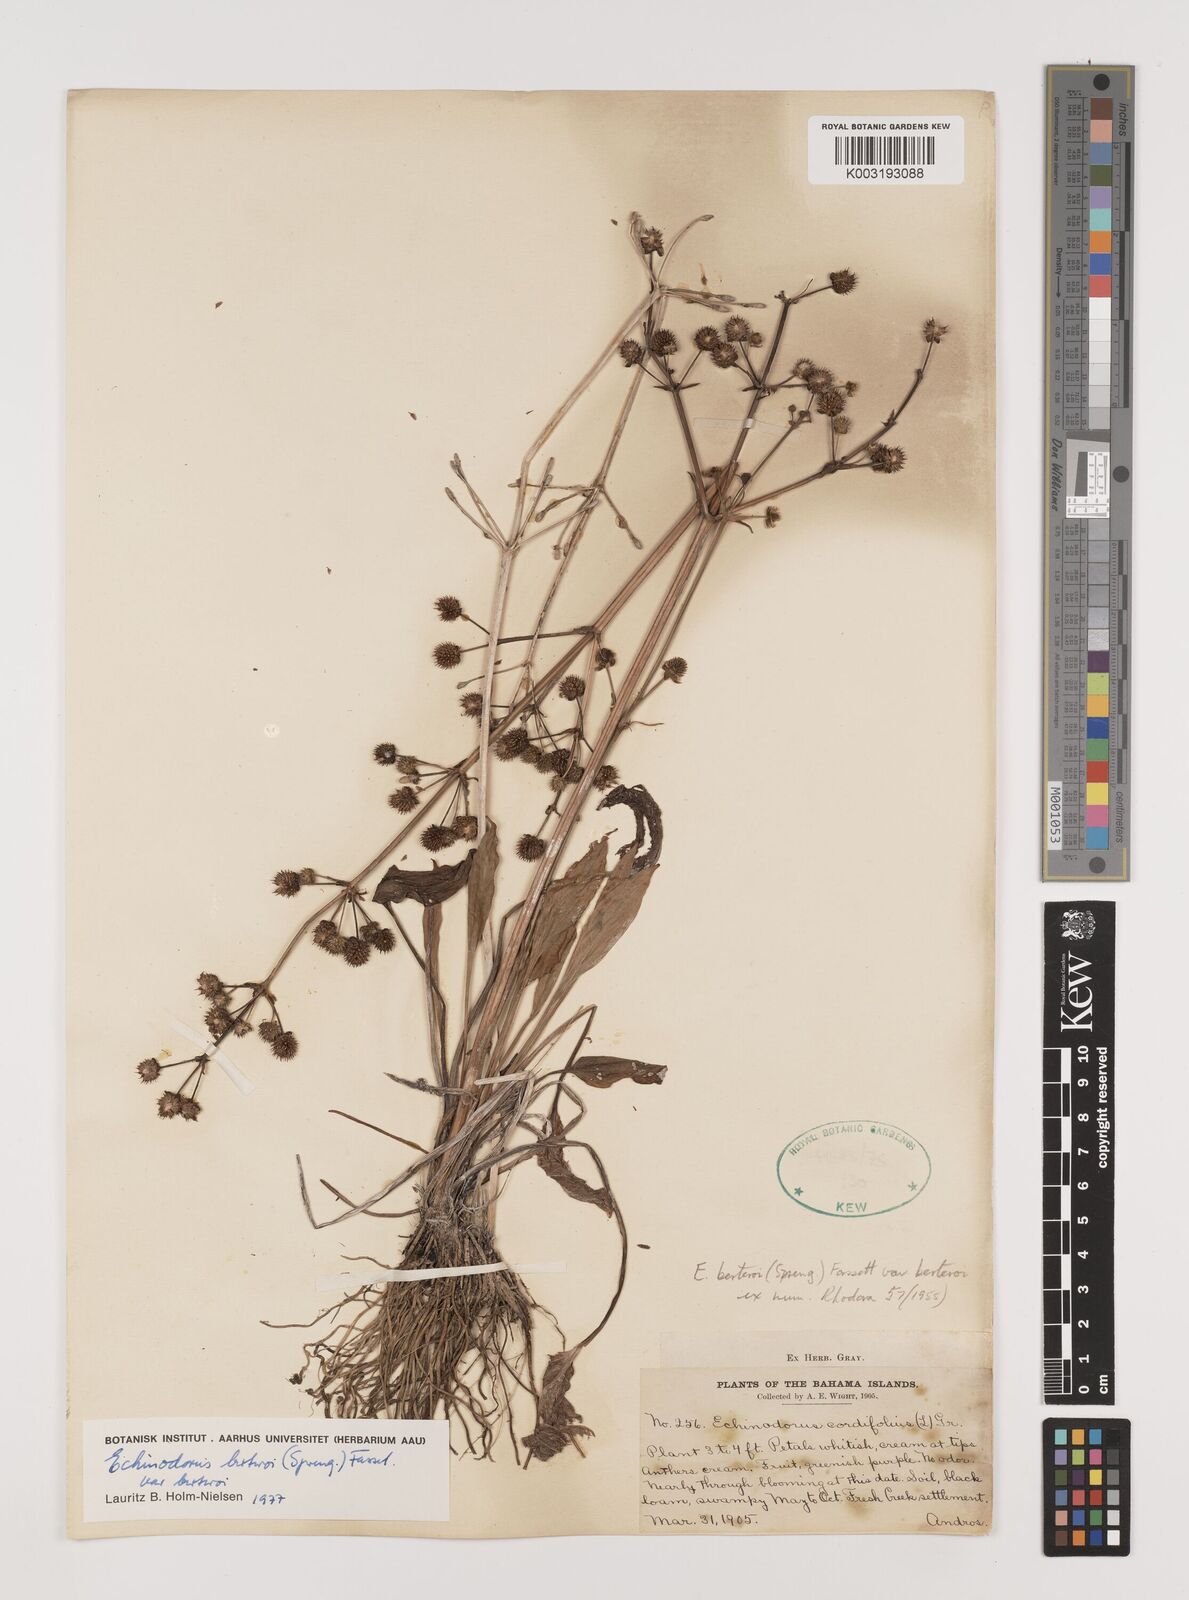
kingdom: Plantae
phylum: Tracheophyta
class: Liliopsida
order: Alismatales
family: Alismataceae
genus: Echinodorus
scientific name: Echinodorus berteroi
